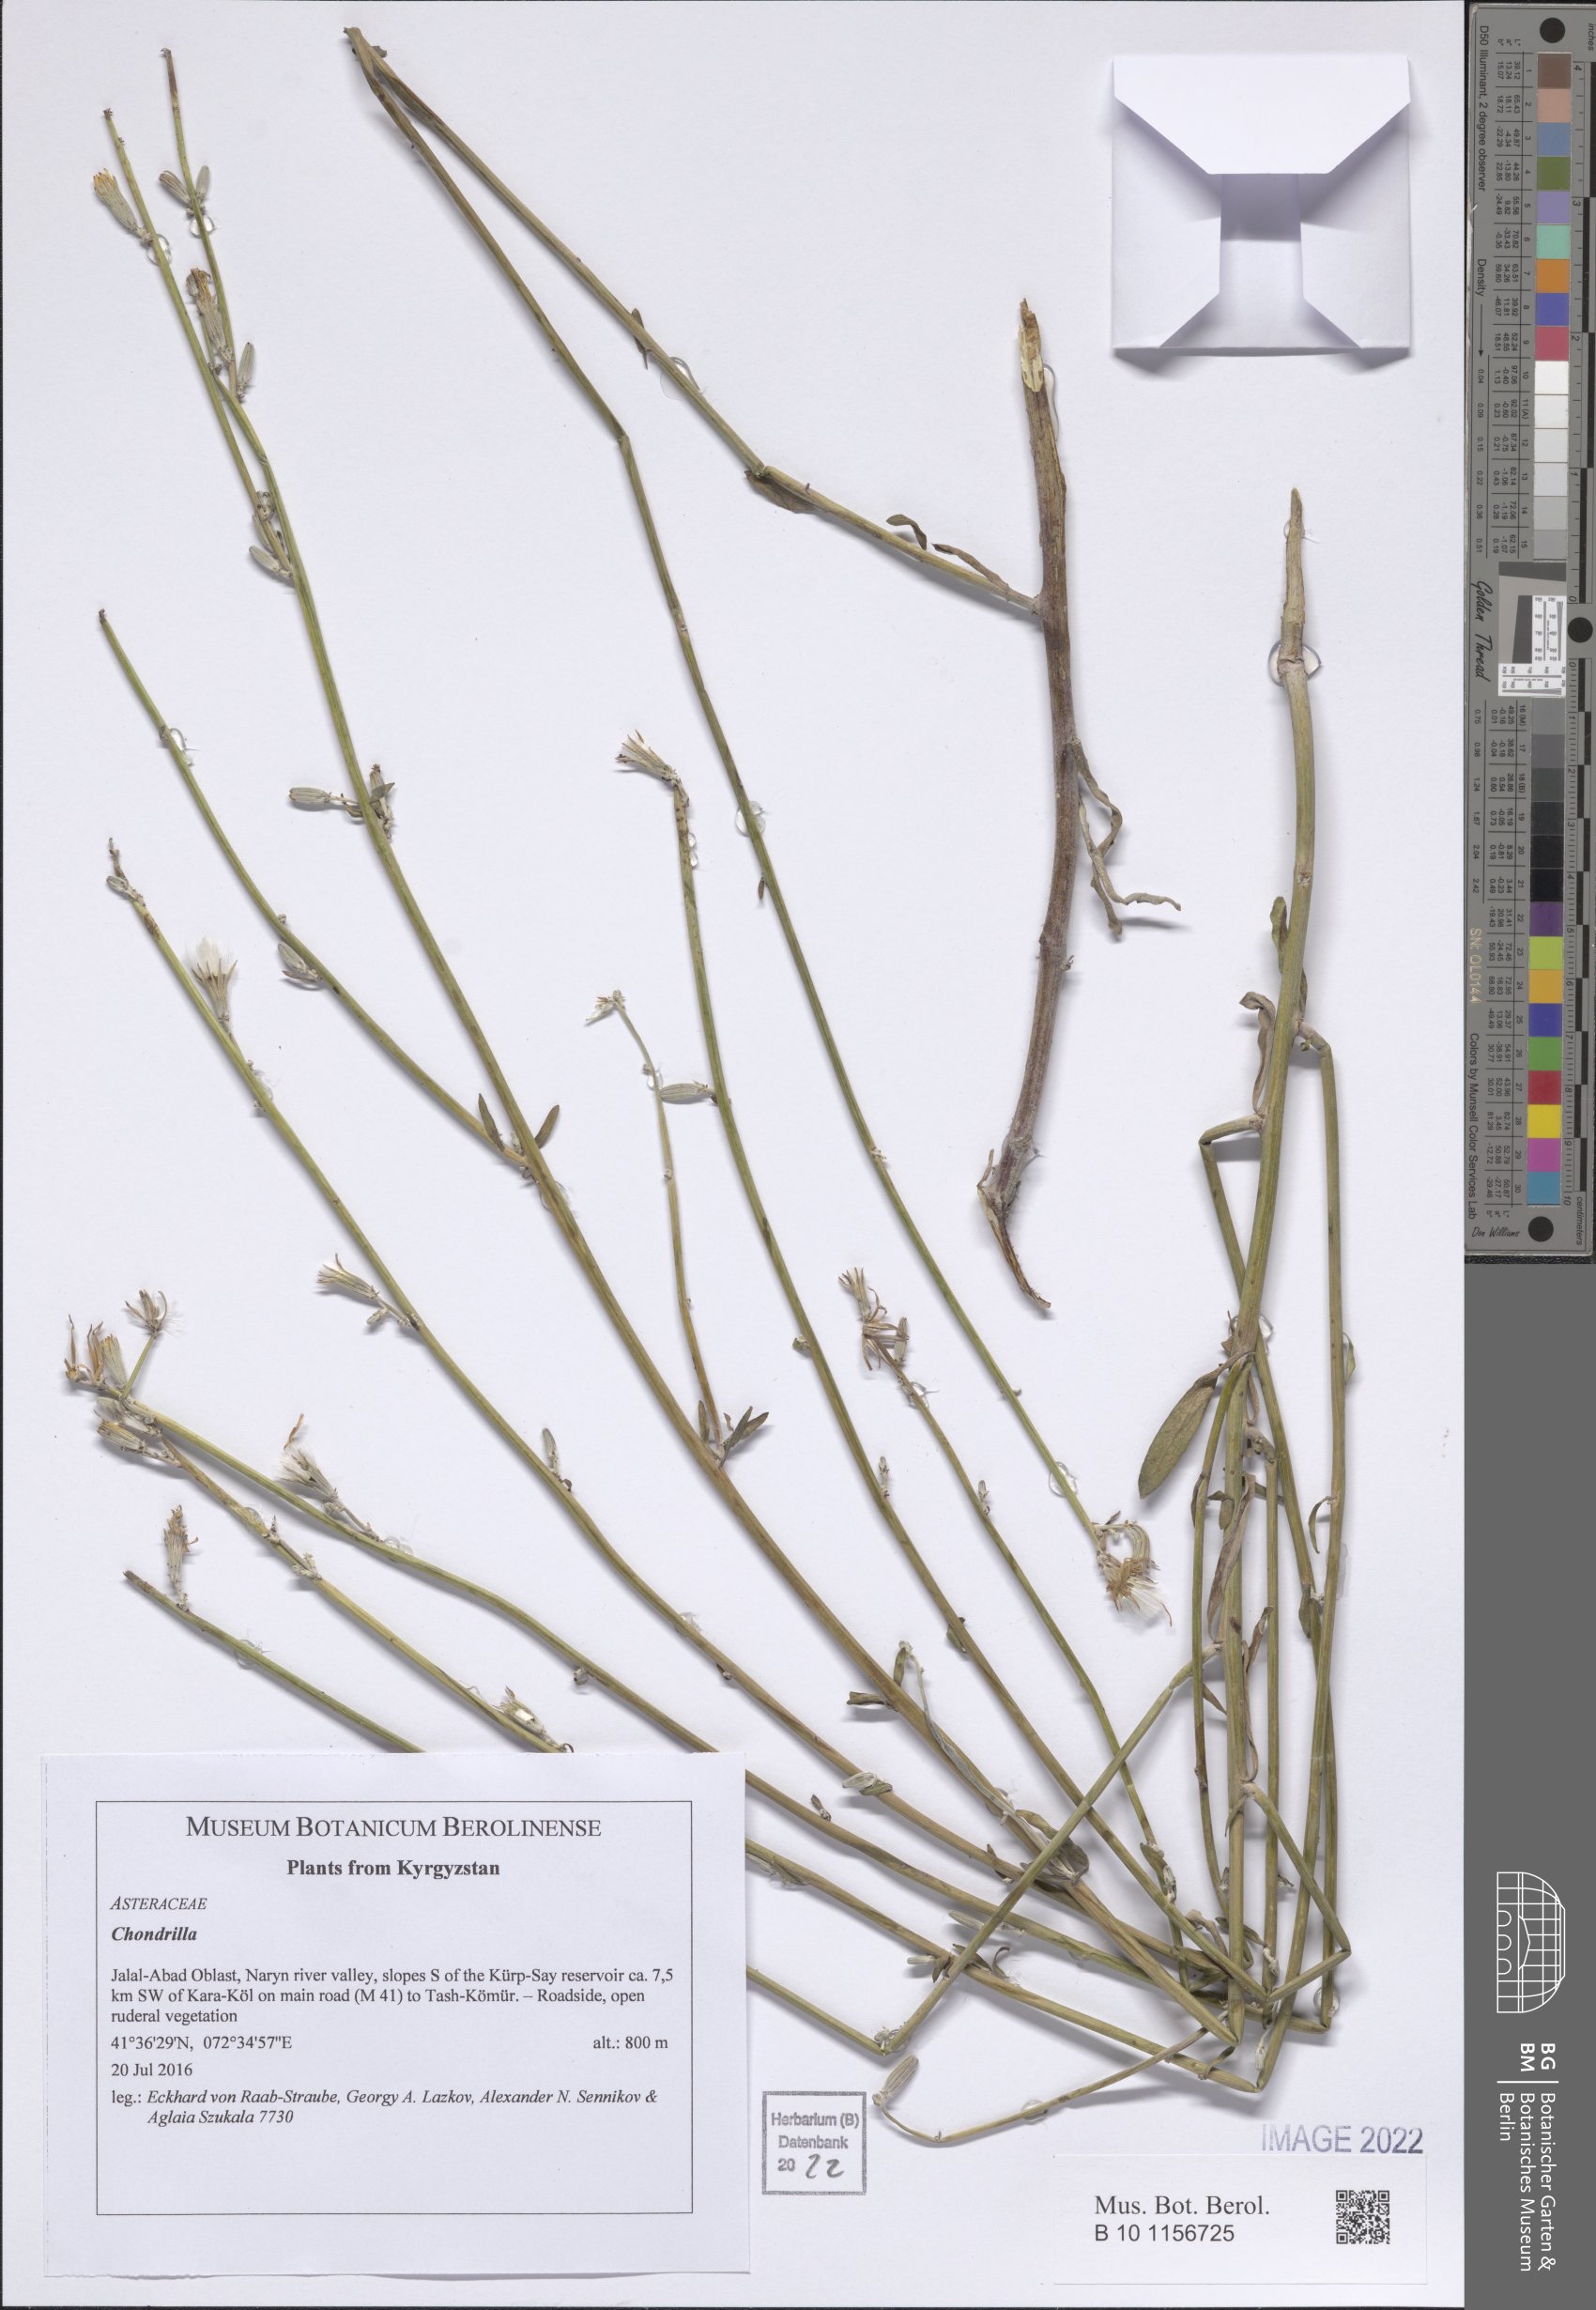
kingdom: Plantae
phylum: Tracheophyta
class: Magnoliopsida
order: Asterales
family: Asteraceae
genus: Chondrilla
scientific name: Chondrilla
